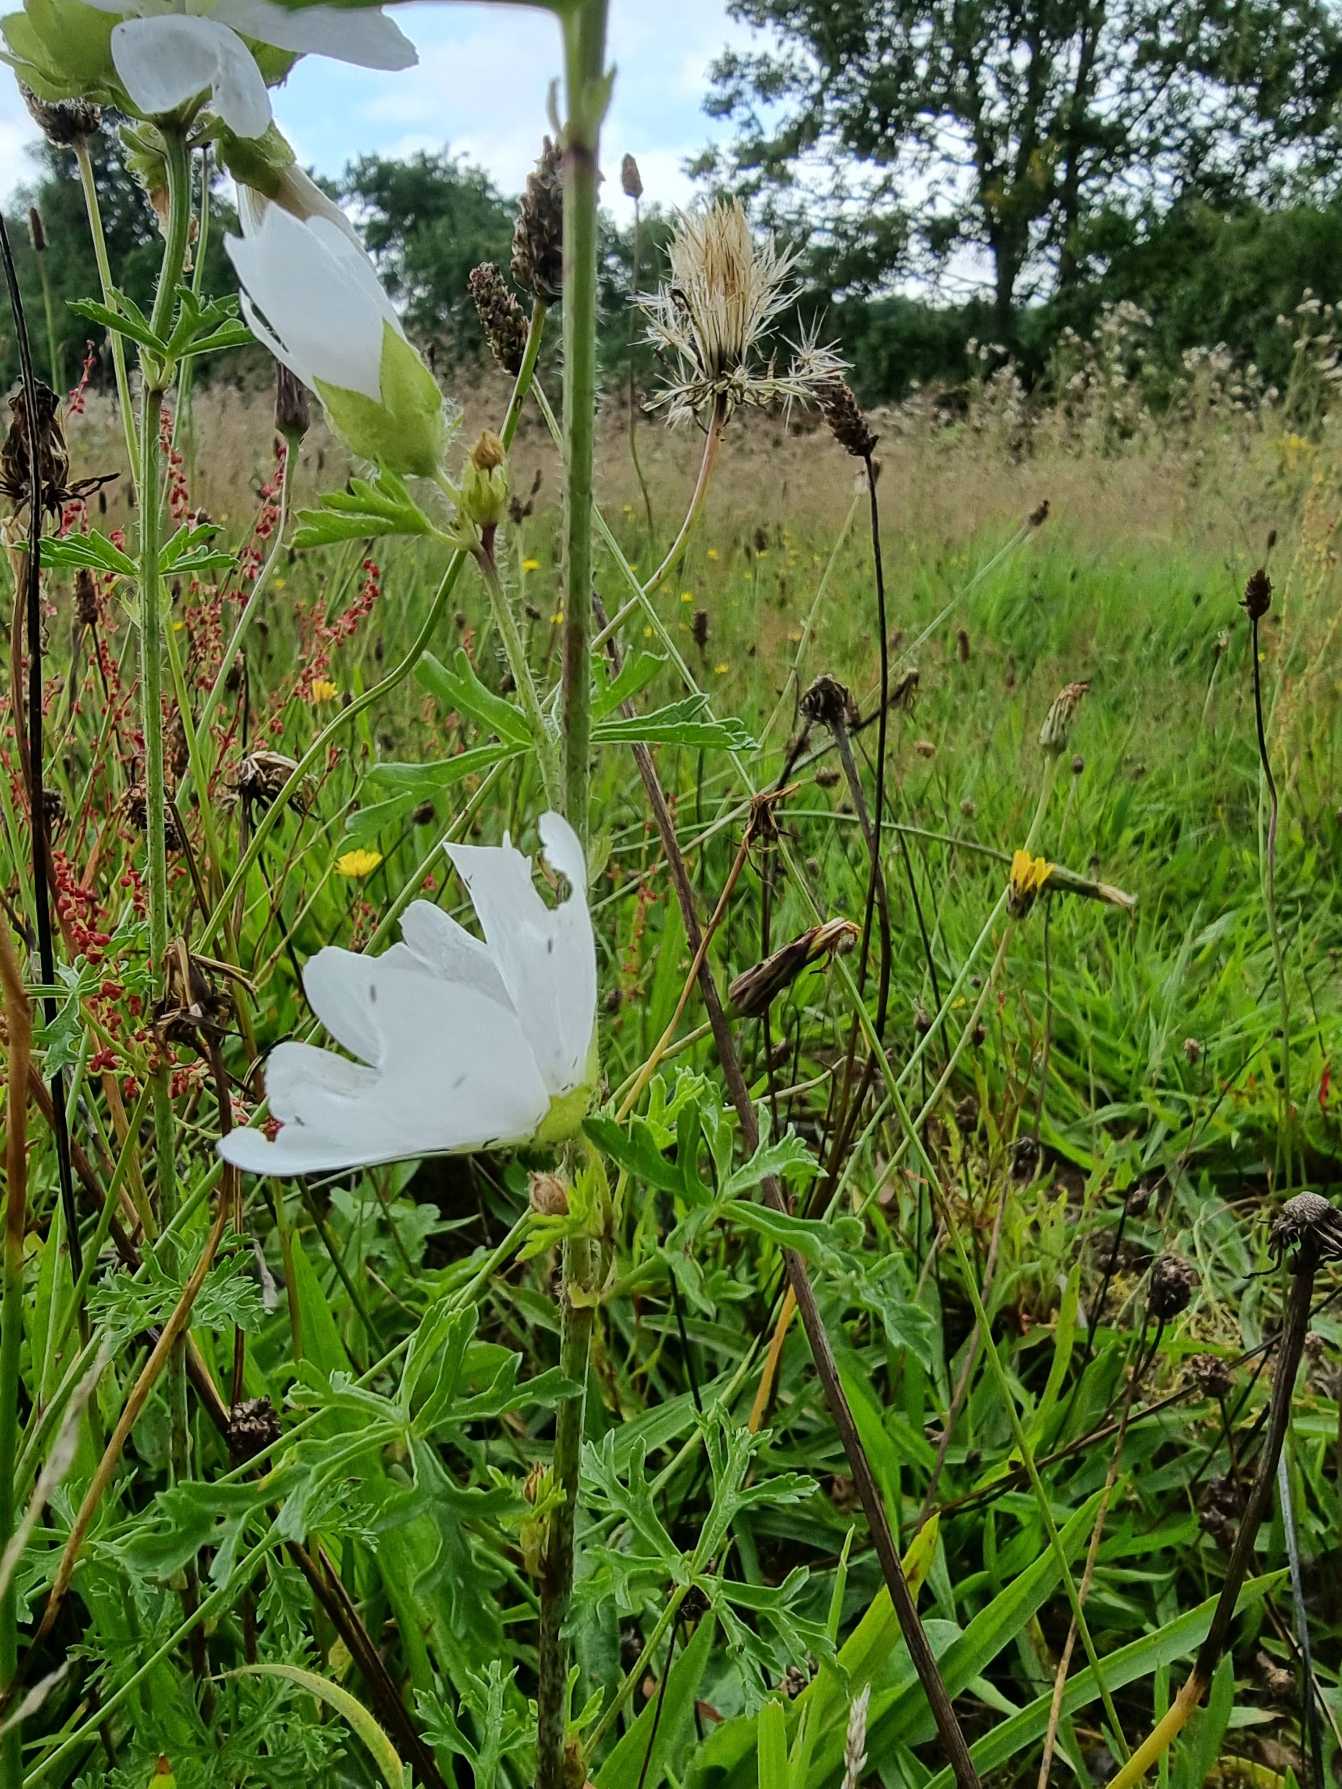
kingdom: Plantae
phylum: Tracheophyta
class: Magnoliopsida
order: Malvales
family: Malvaceae
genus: Malva
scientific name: Malva moschata
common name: Moskus-katost
